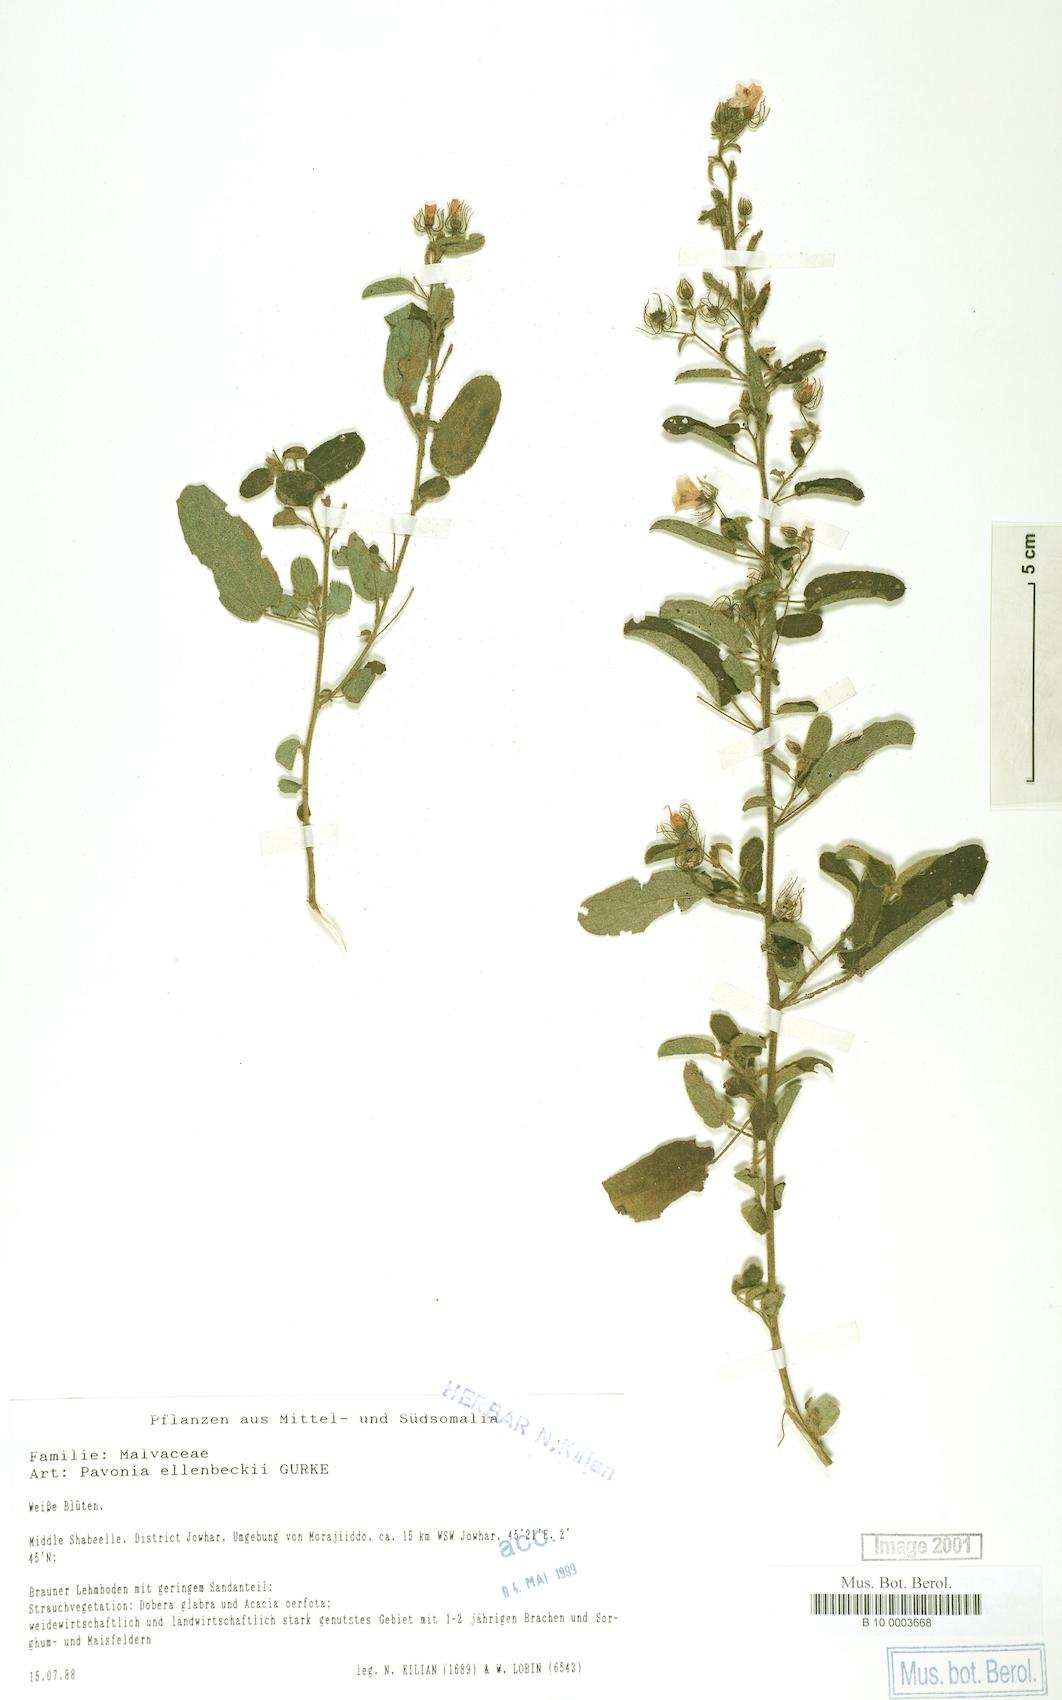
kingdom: Plantae
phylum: Tracheophyta
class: Magnoliopsida
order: Malvales
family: Malvaceae
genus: Pavonia
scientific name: Pavonia ellenbeckii
